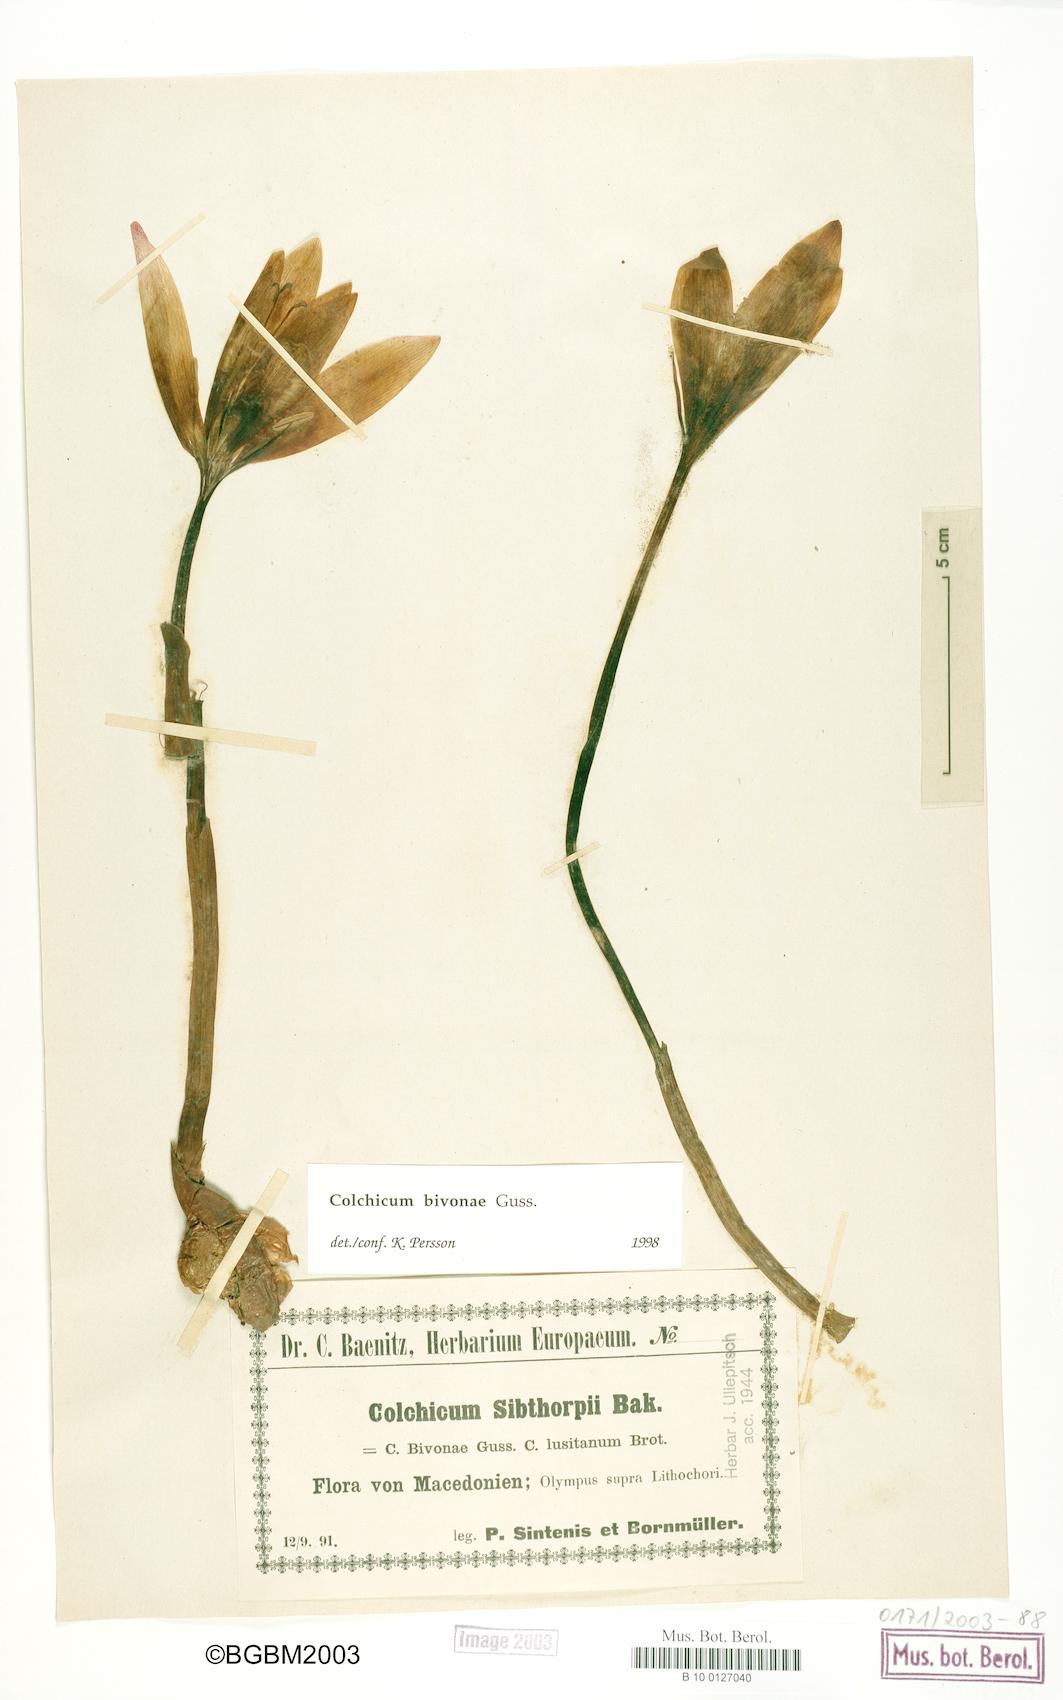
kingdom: Plantae
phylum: Tracheophyta
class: Liliopsida
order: Liliales
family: Colchicaceae
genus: Colchicum
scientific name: Colchicum bivonae
